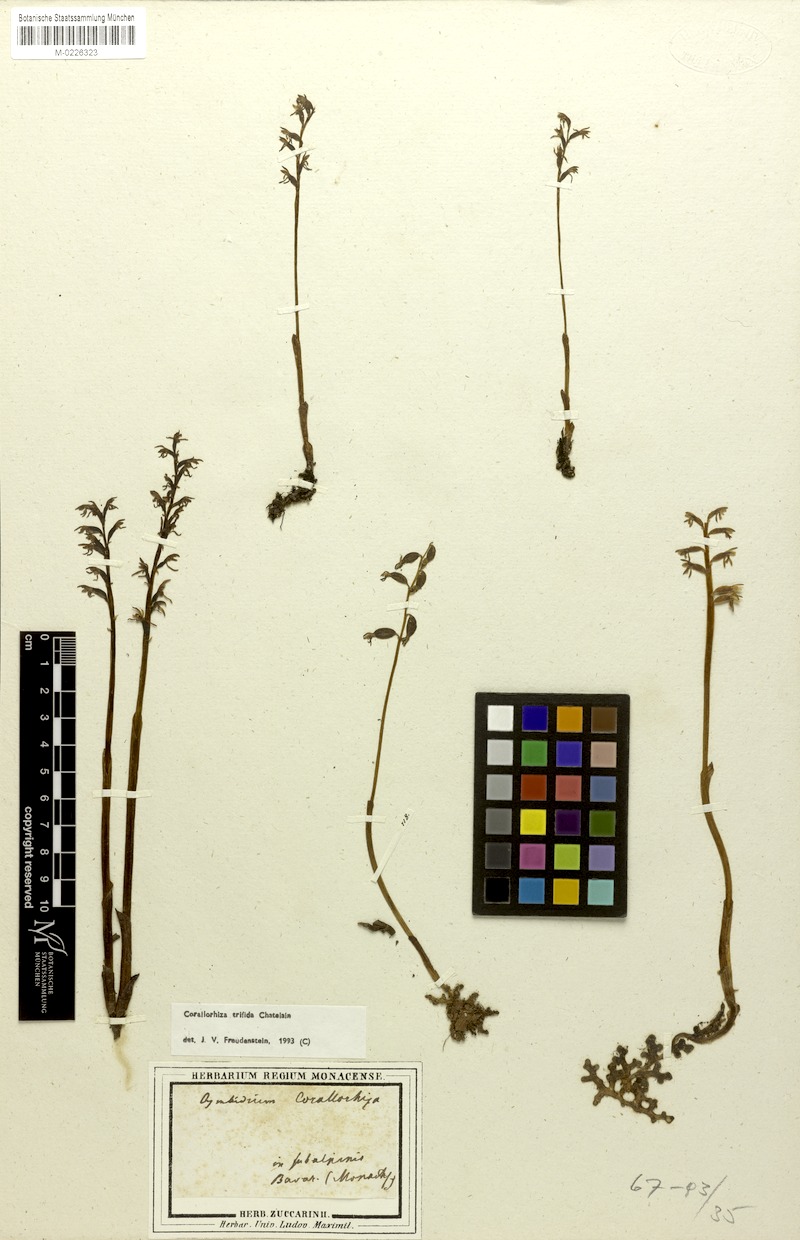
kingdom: Plantae
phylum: Tracheophyta
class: Liliopsida
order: Asparagales
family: Orchidaceae
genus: Corallorhiza
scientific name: Corallorhiza trifida
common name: Yellow coralroot
